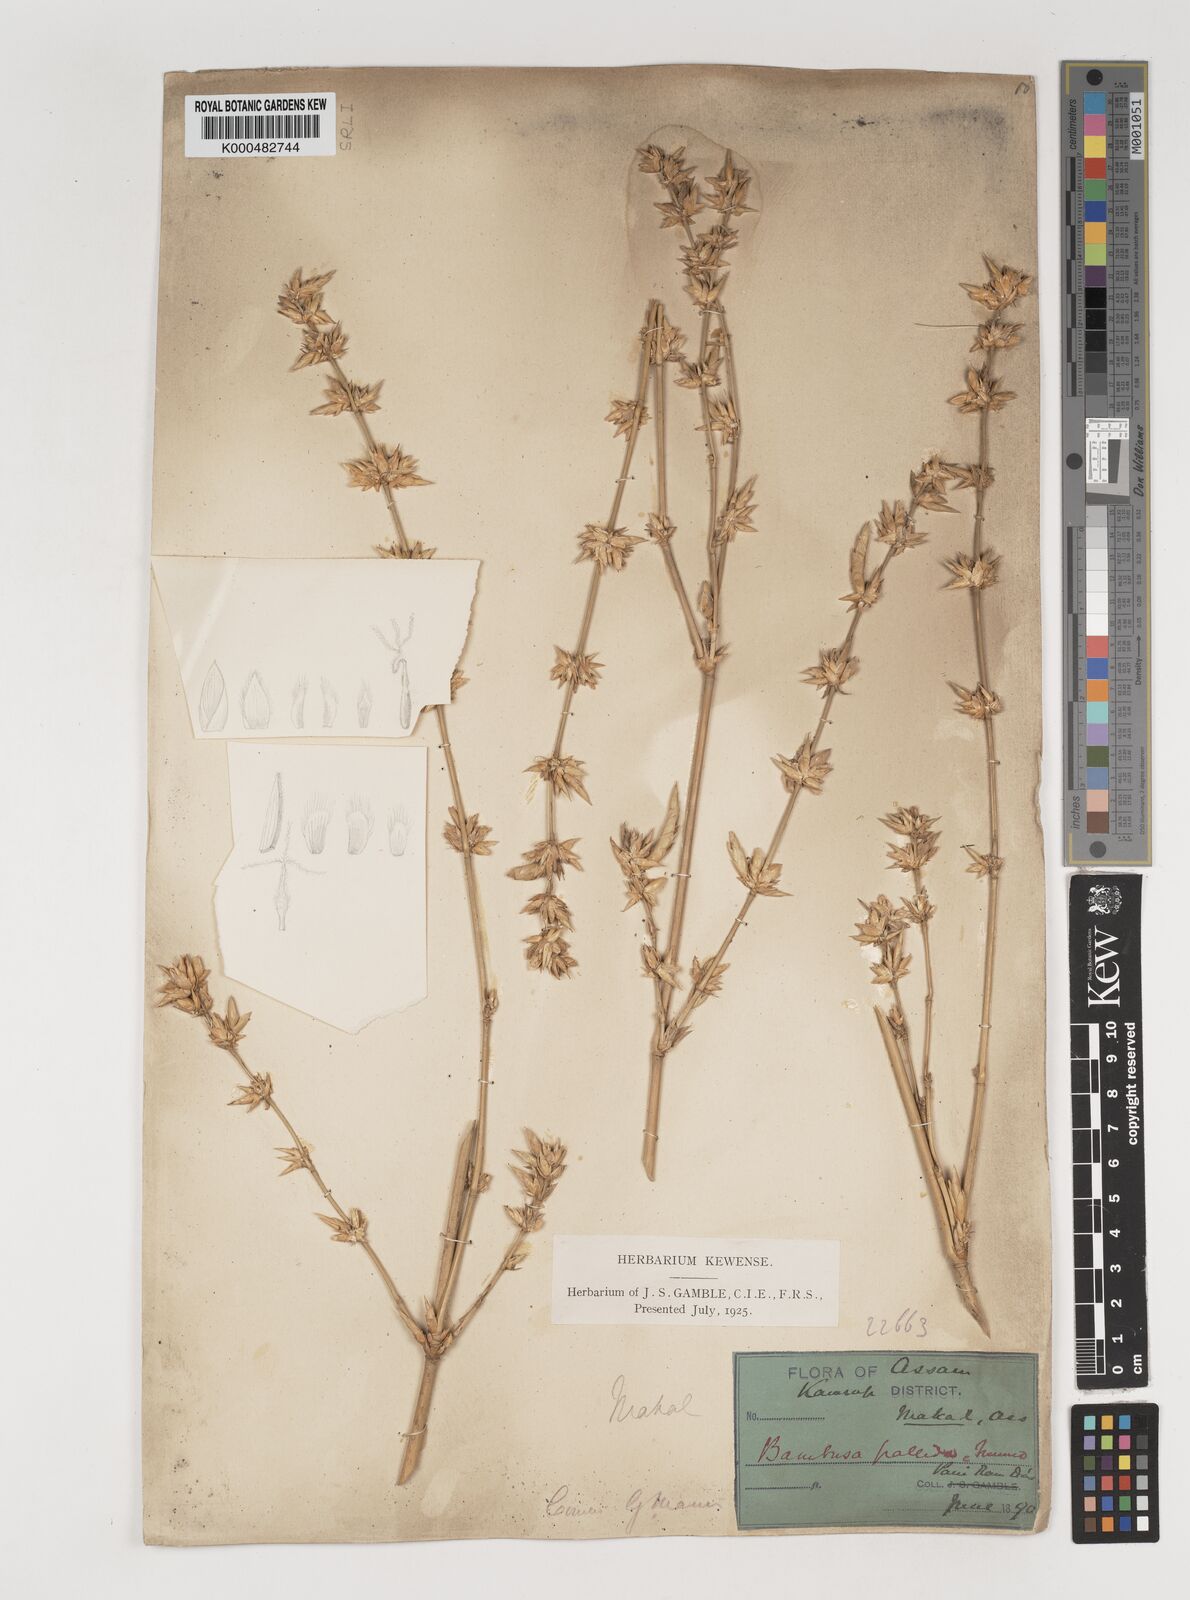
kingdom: Plantae
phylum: Tracheophyta
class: Liliopsida
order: Poales
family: Poaceae
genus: Bambusa
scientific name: Bambusa pallida
